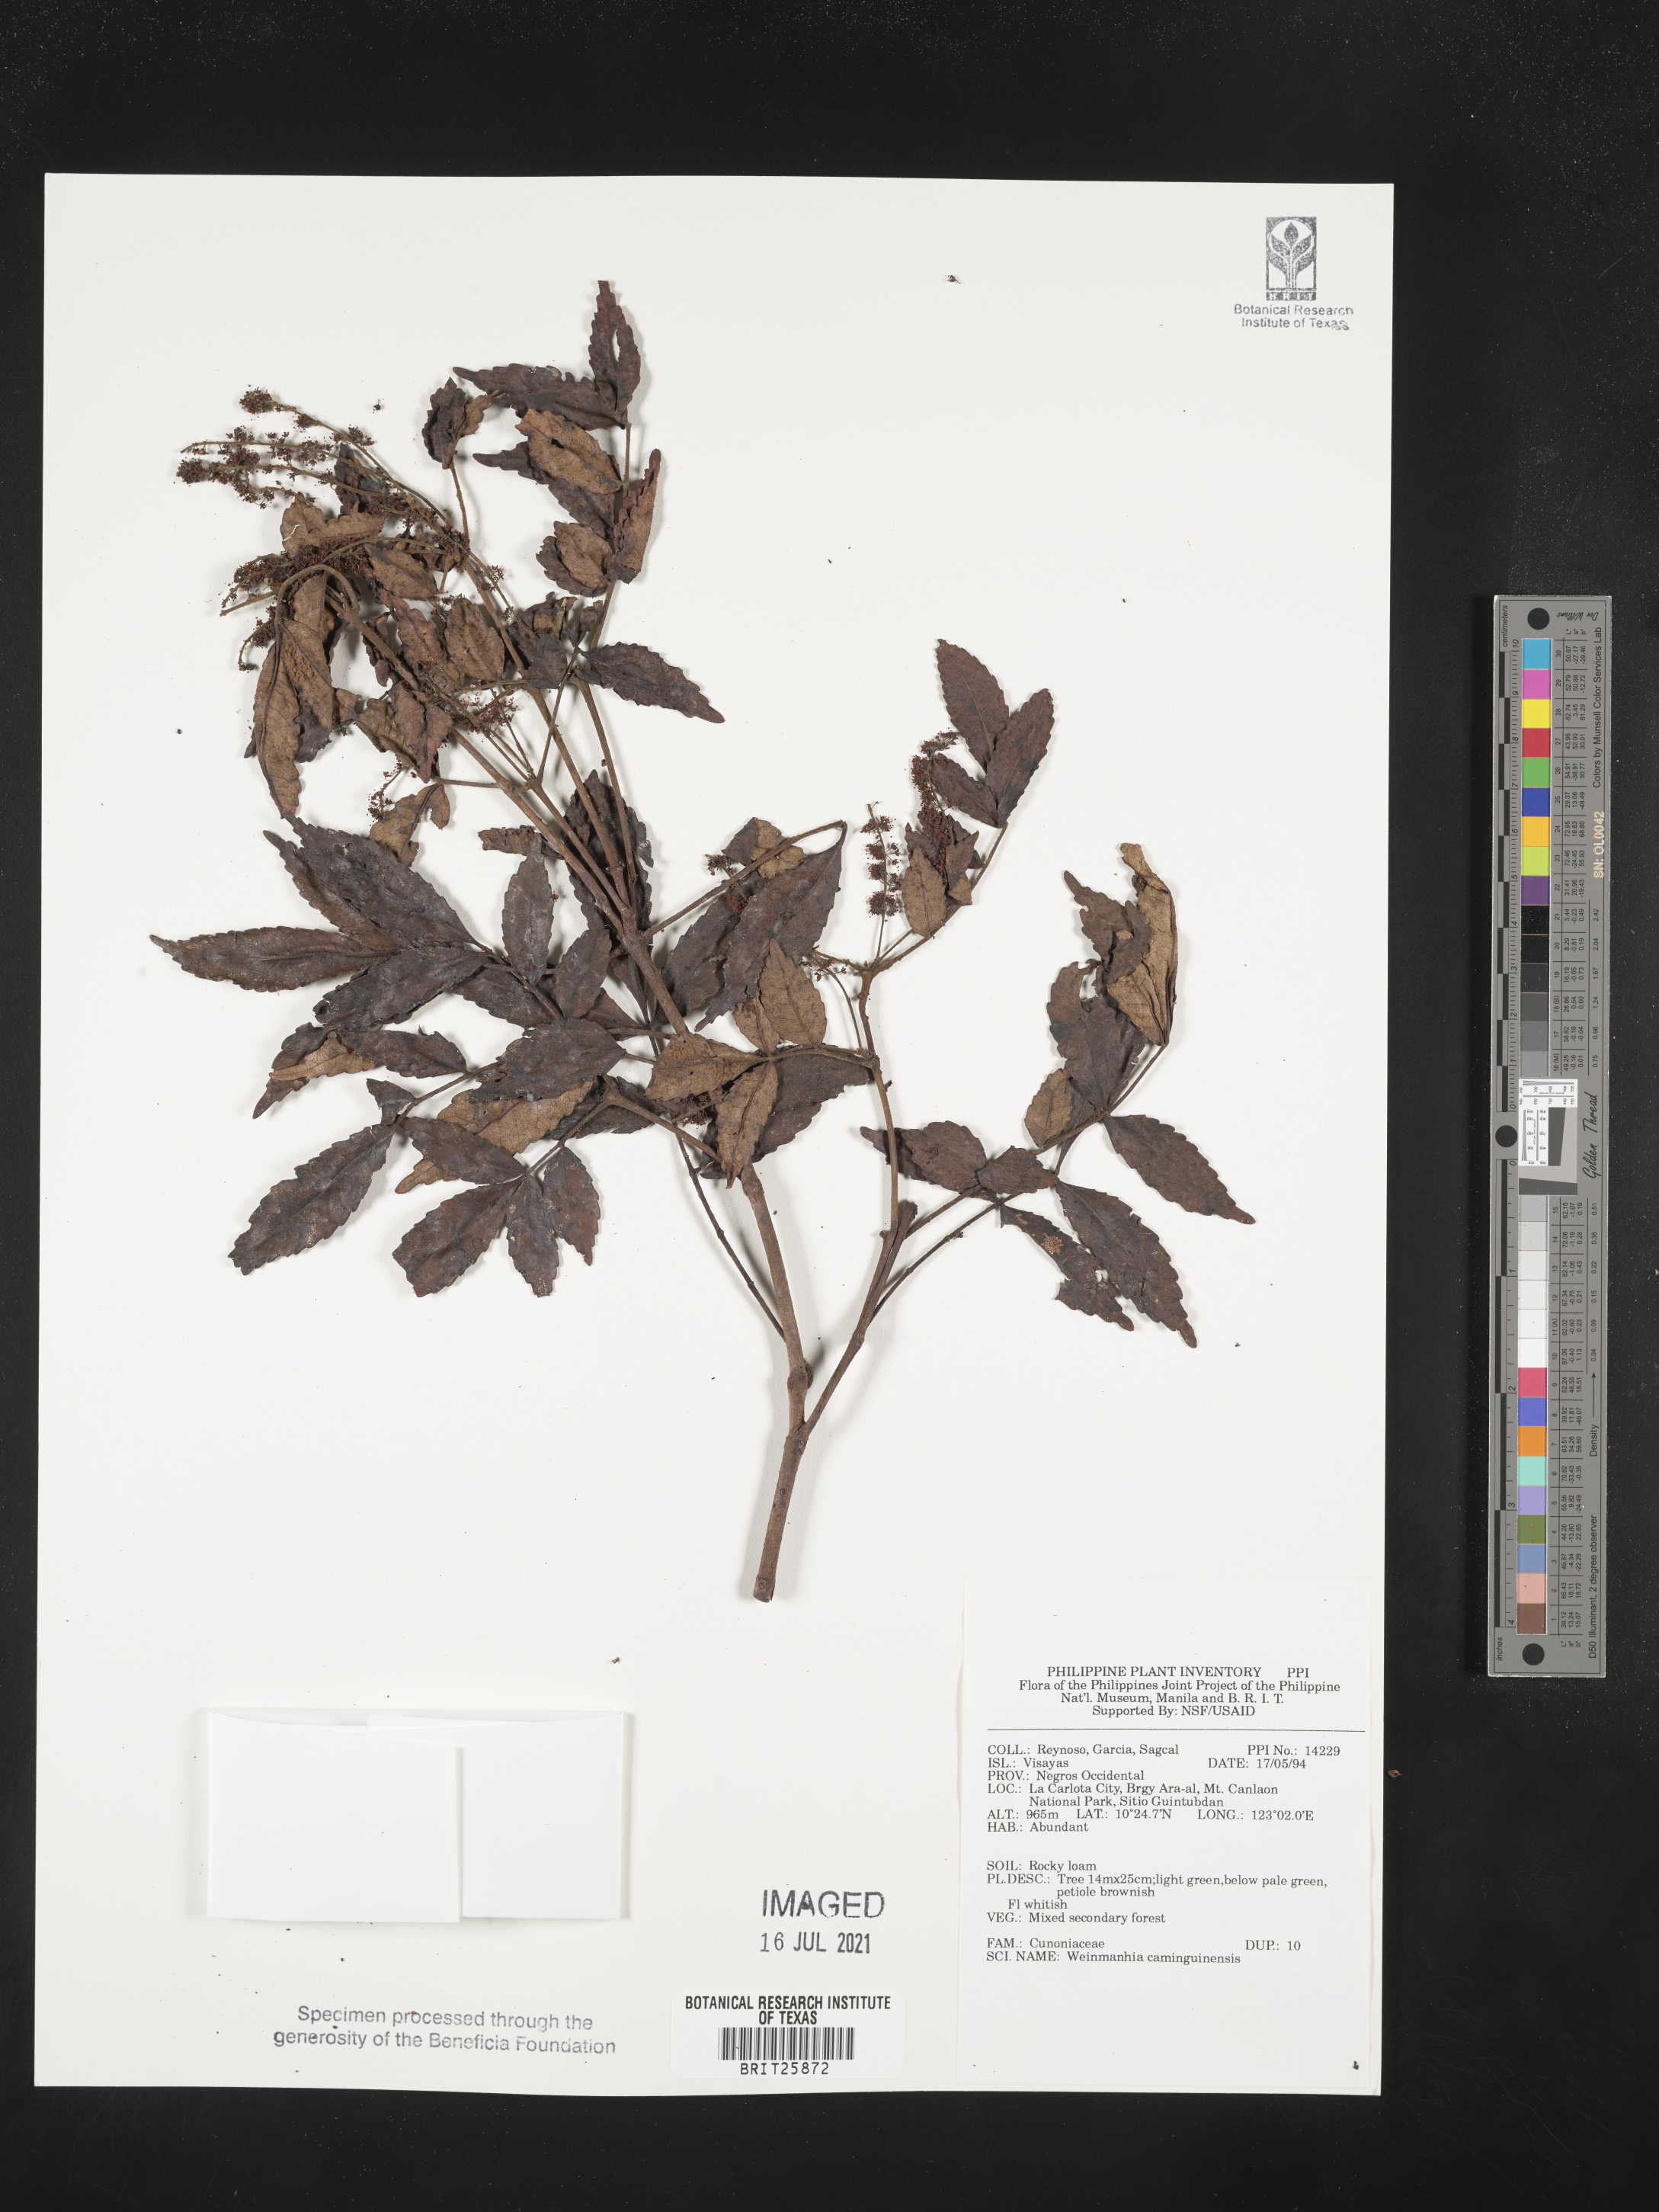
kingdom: Plantae
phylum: Tracheophyta
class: Magnoliopsida
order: Oxalidales
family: Cunoniaceae
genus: Pterophylla
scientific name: Pterophylla hutchinsonii
